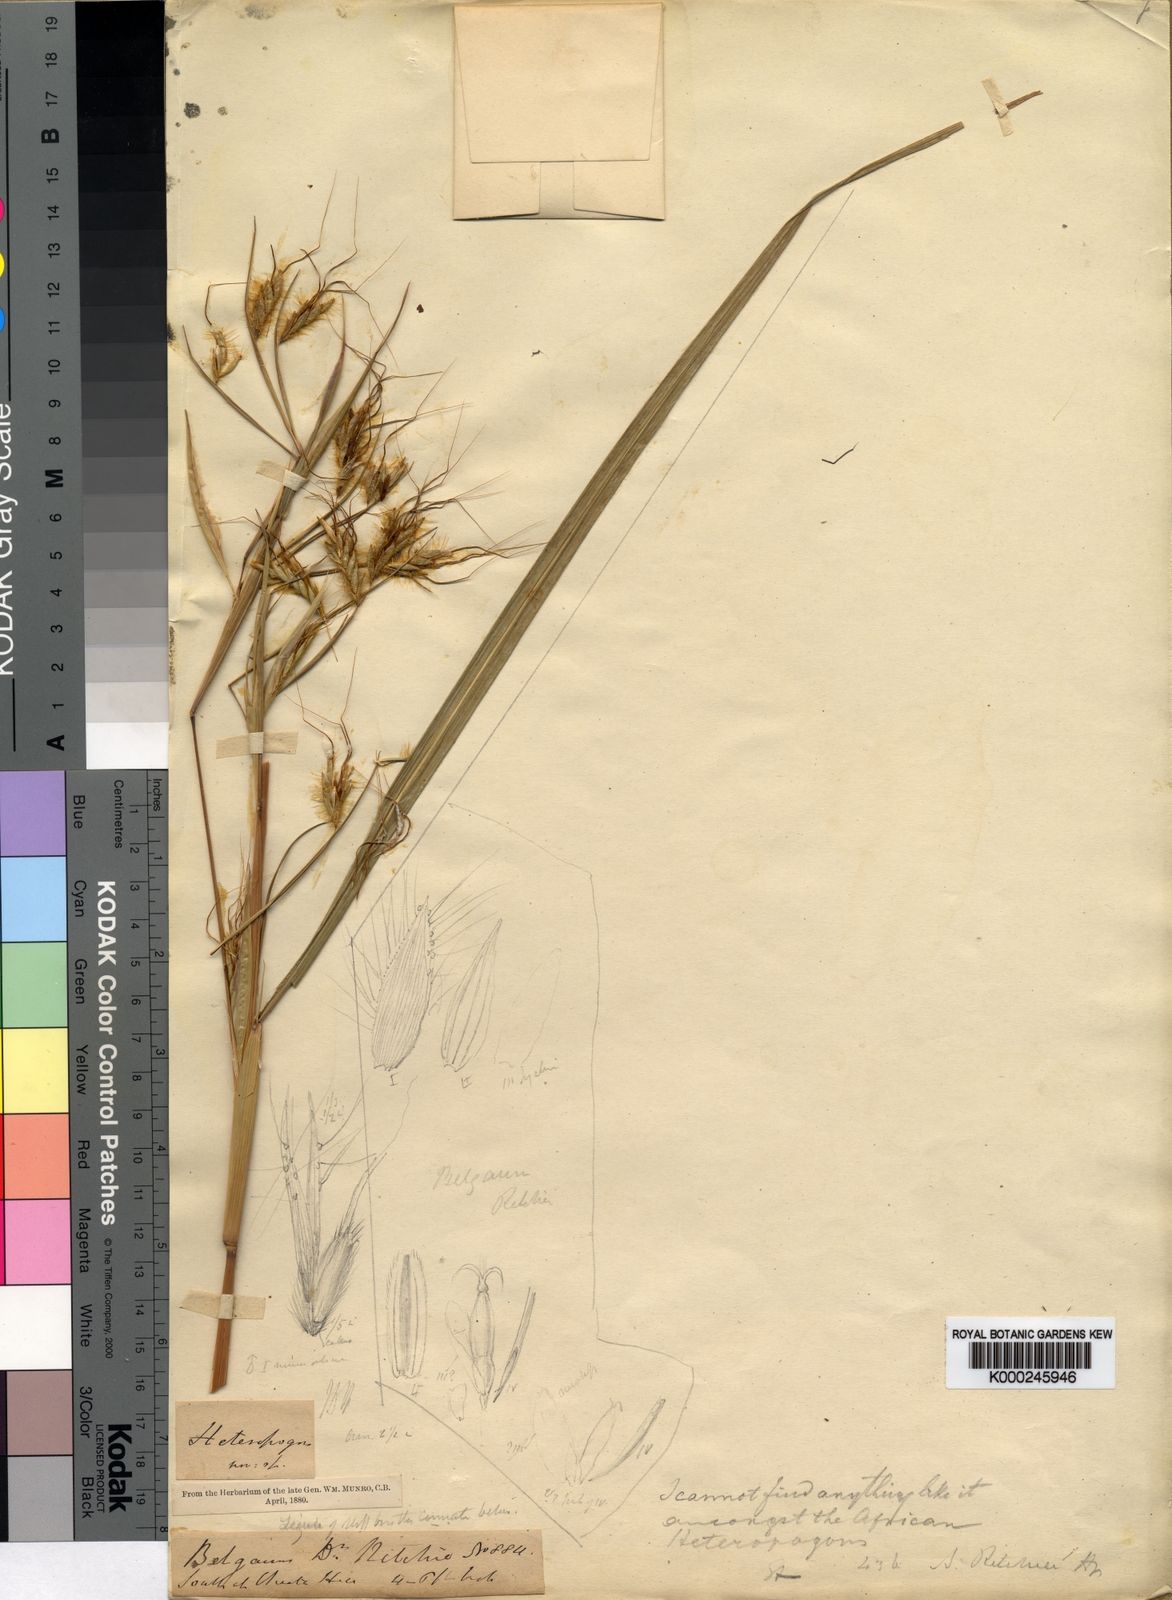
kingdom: Plantae
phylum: Tracheophyta
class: Liliopsida
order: Poales
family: Poaceae
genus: Heteropogon
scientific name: Heteropogon ritchiei
